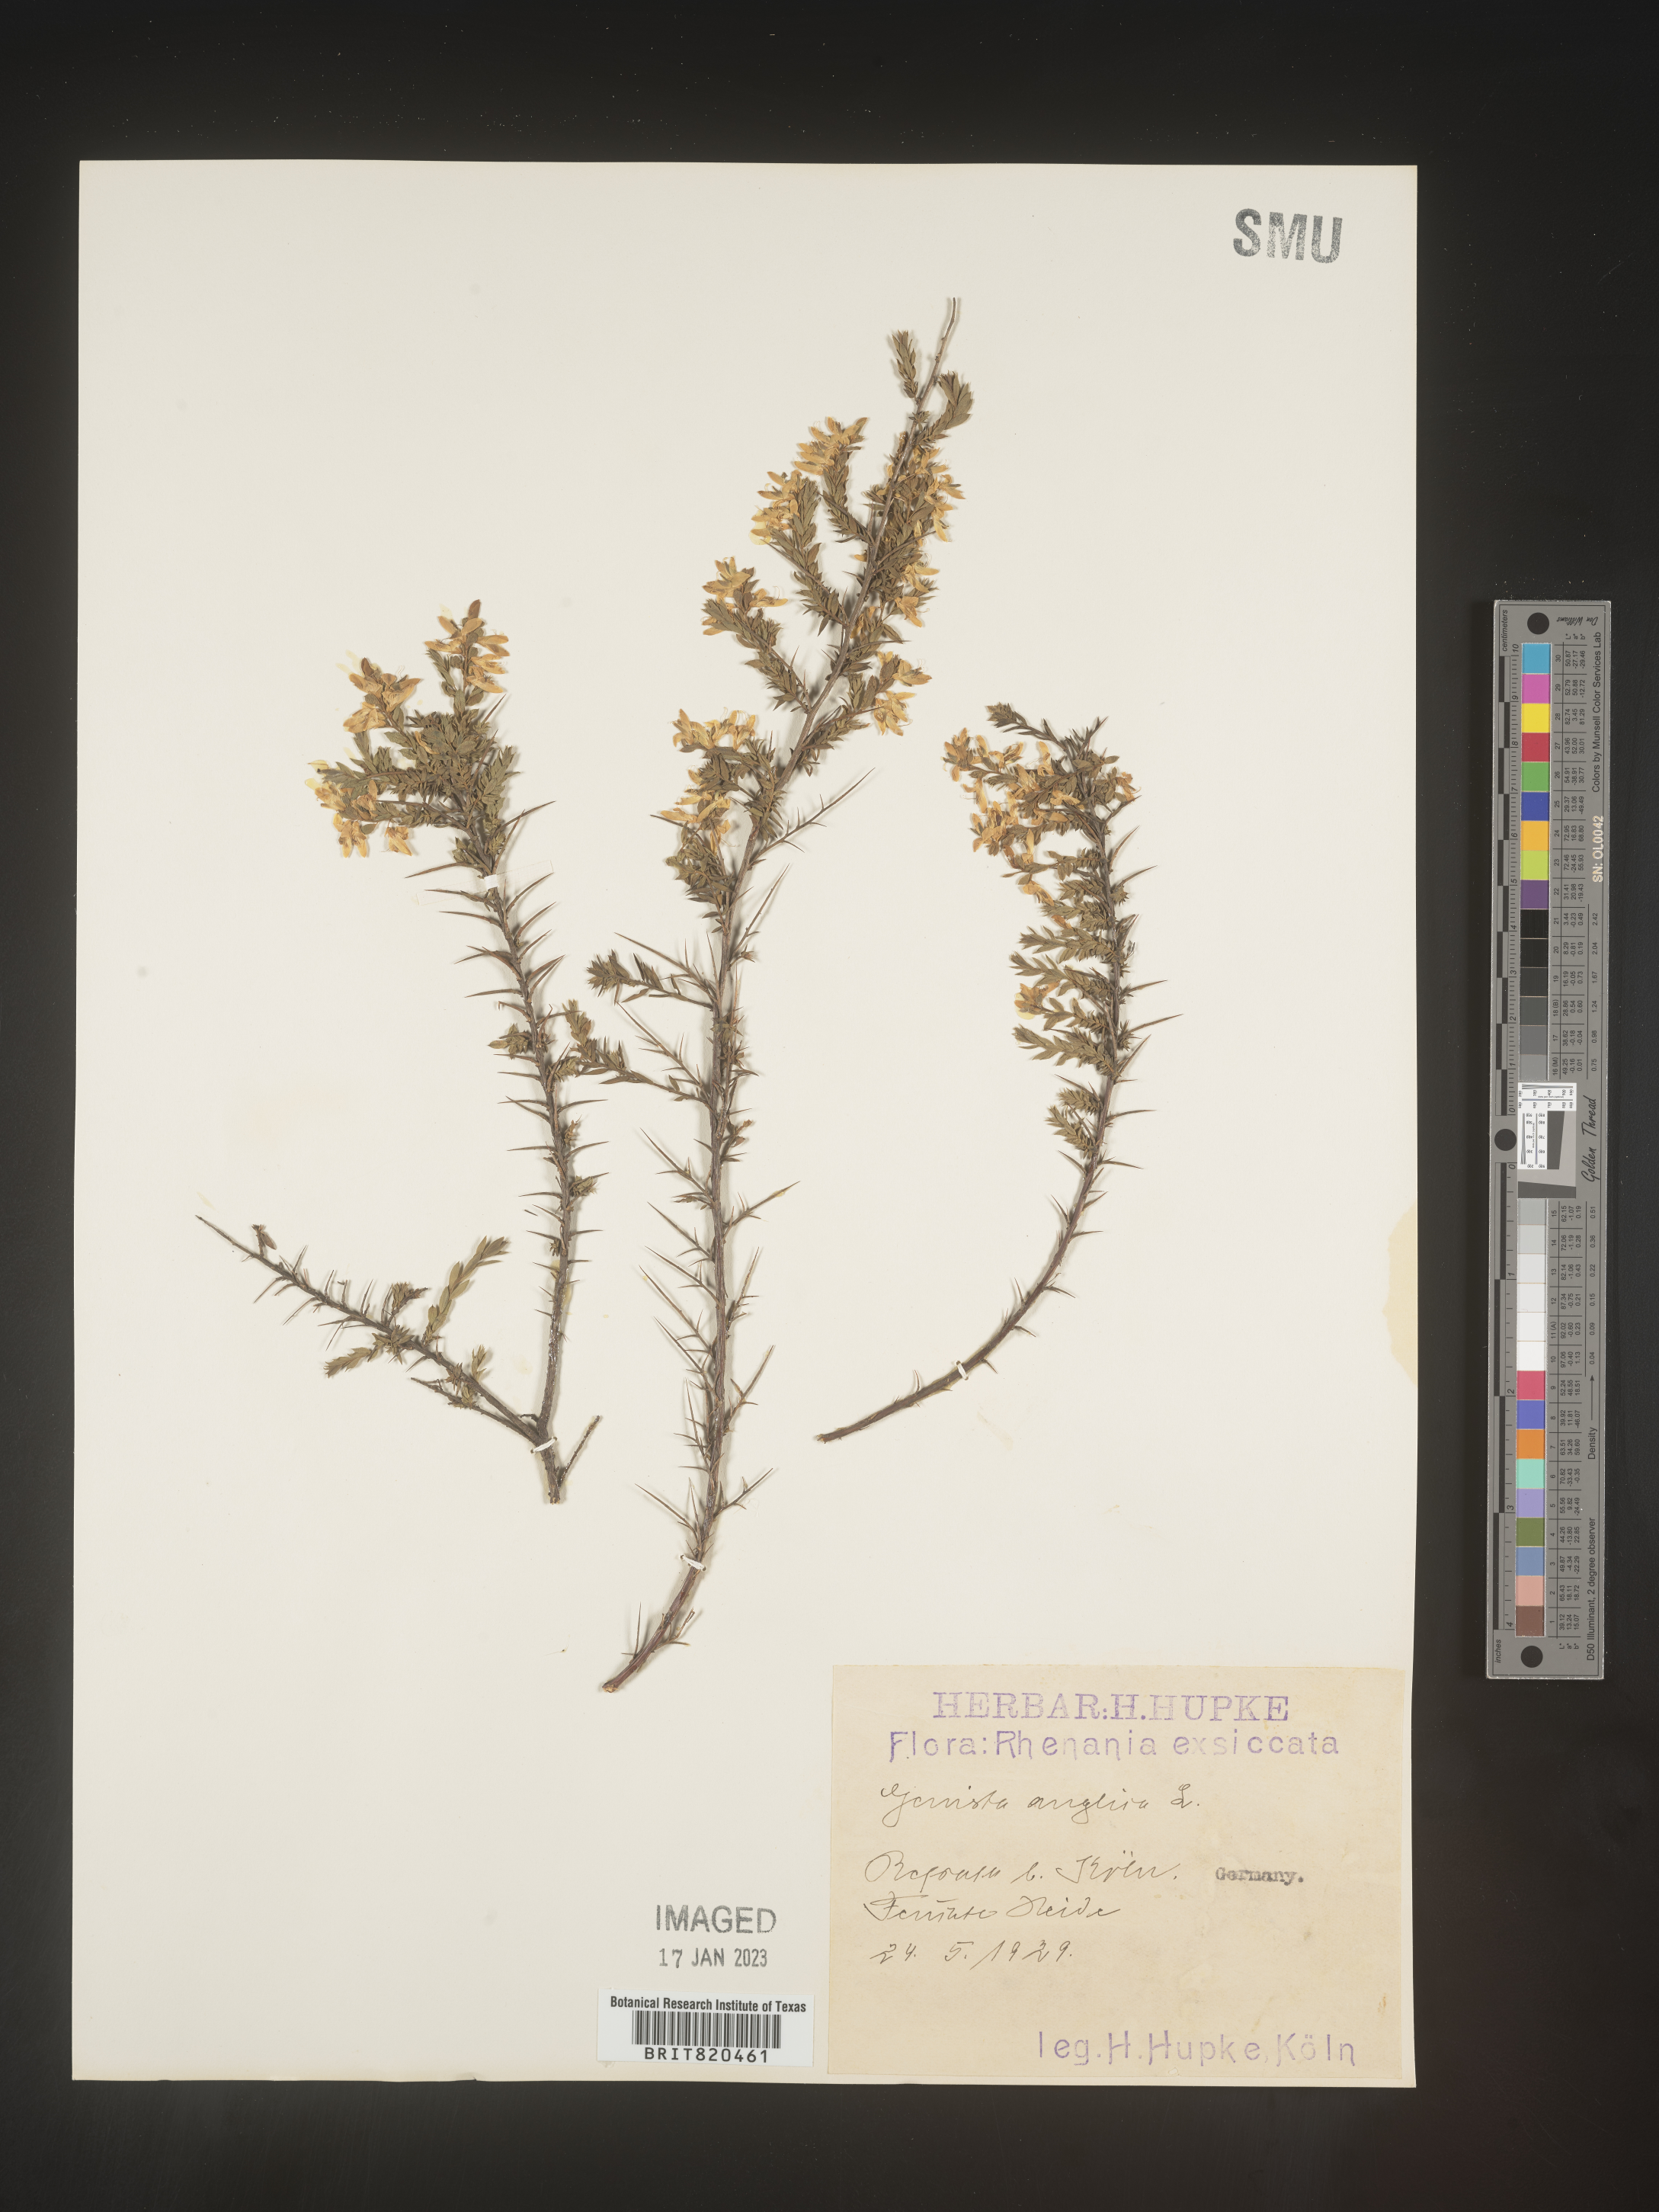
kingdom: Plantae
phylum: Tracheophyta
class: Magnoliopsida
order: Fabales
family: Fabaceae
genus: Genista
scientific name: Genista
